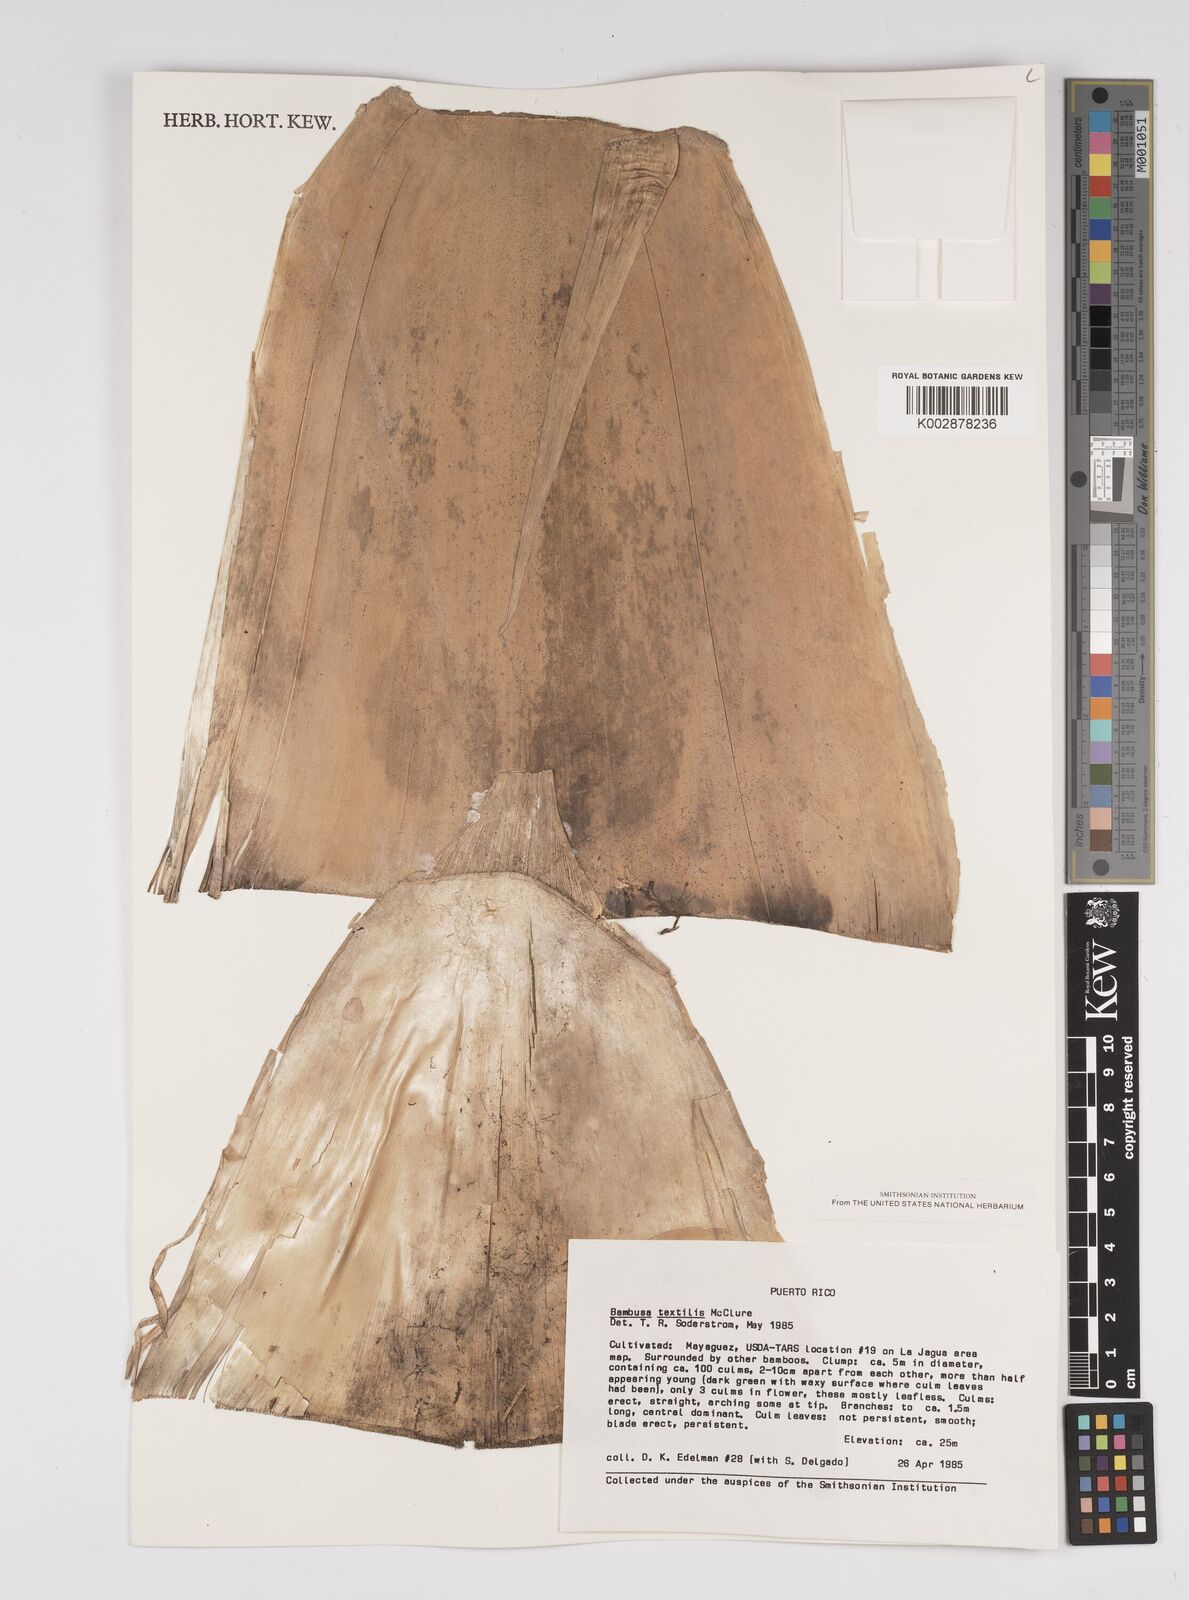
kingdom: Plantae
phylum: Tracheophyta
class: Liliopsida
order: Poales
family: Poaceae
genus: Bambusa
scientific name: Bambusa textilis
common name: Weaver's bamboo
